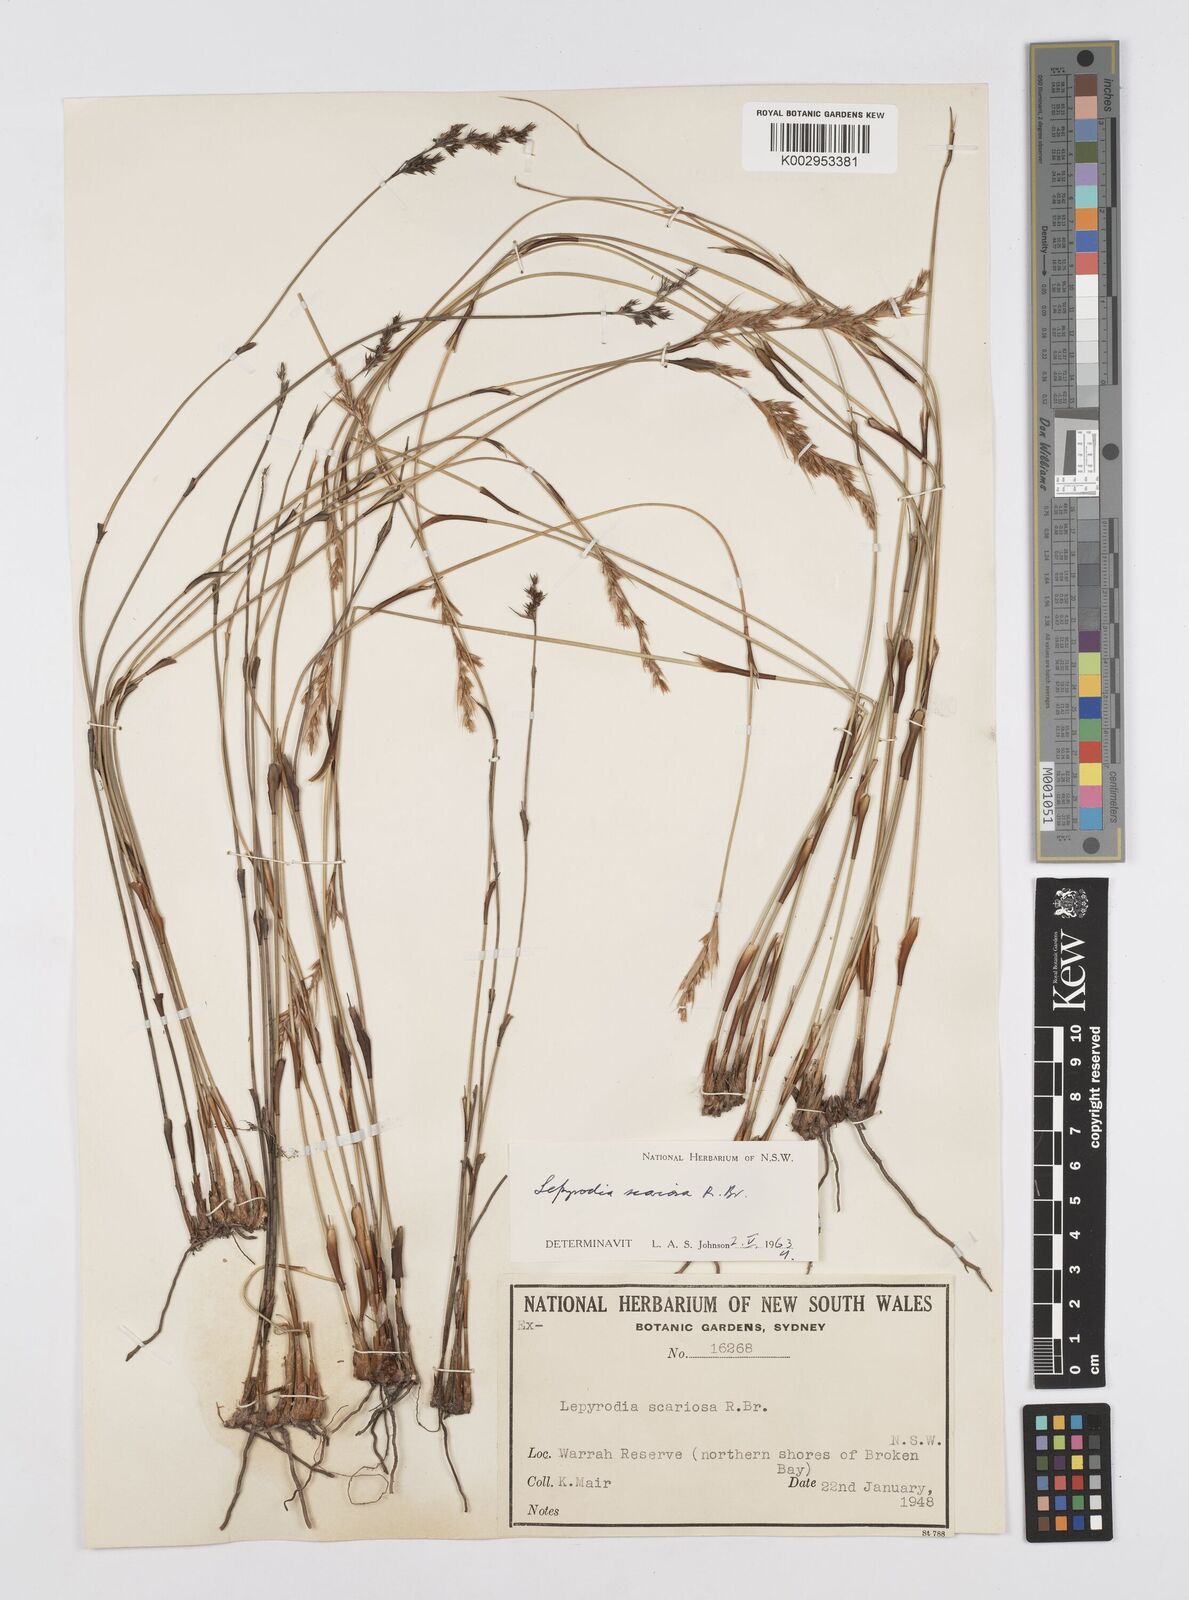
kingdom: Plantae
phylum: Tracheophyta
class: Liliopsida
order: Poales
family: Restionaceae
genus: Lepyrodia
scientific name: Lepyrodia scariosa
